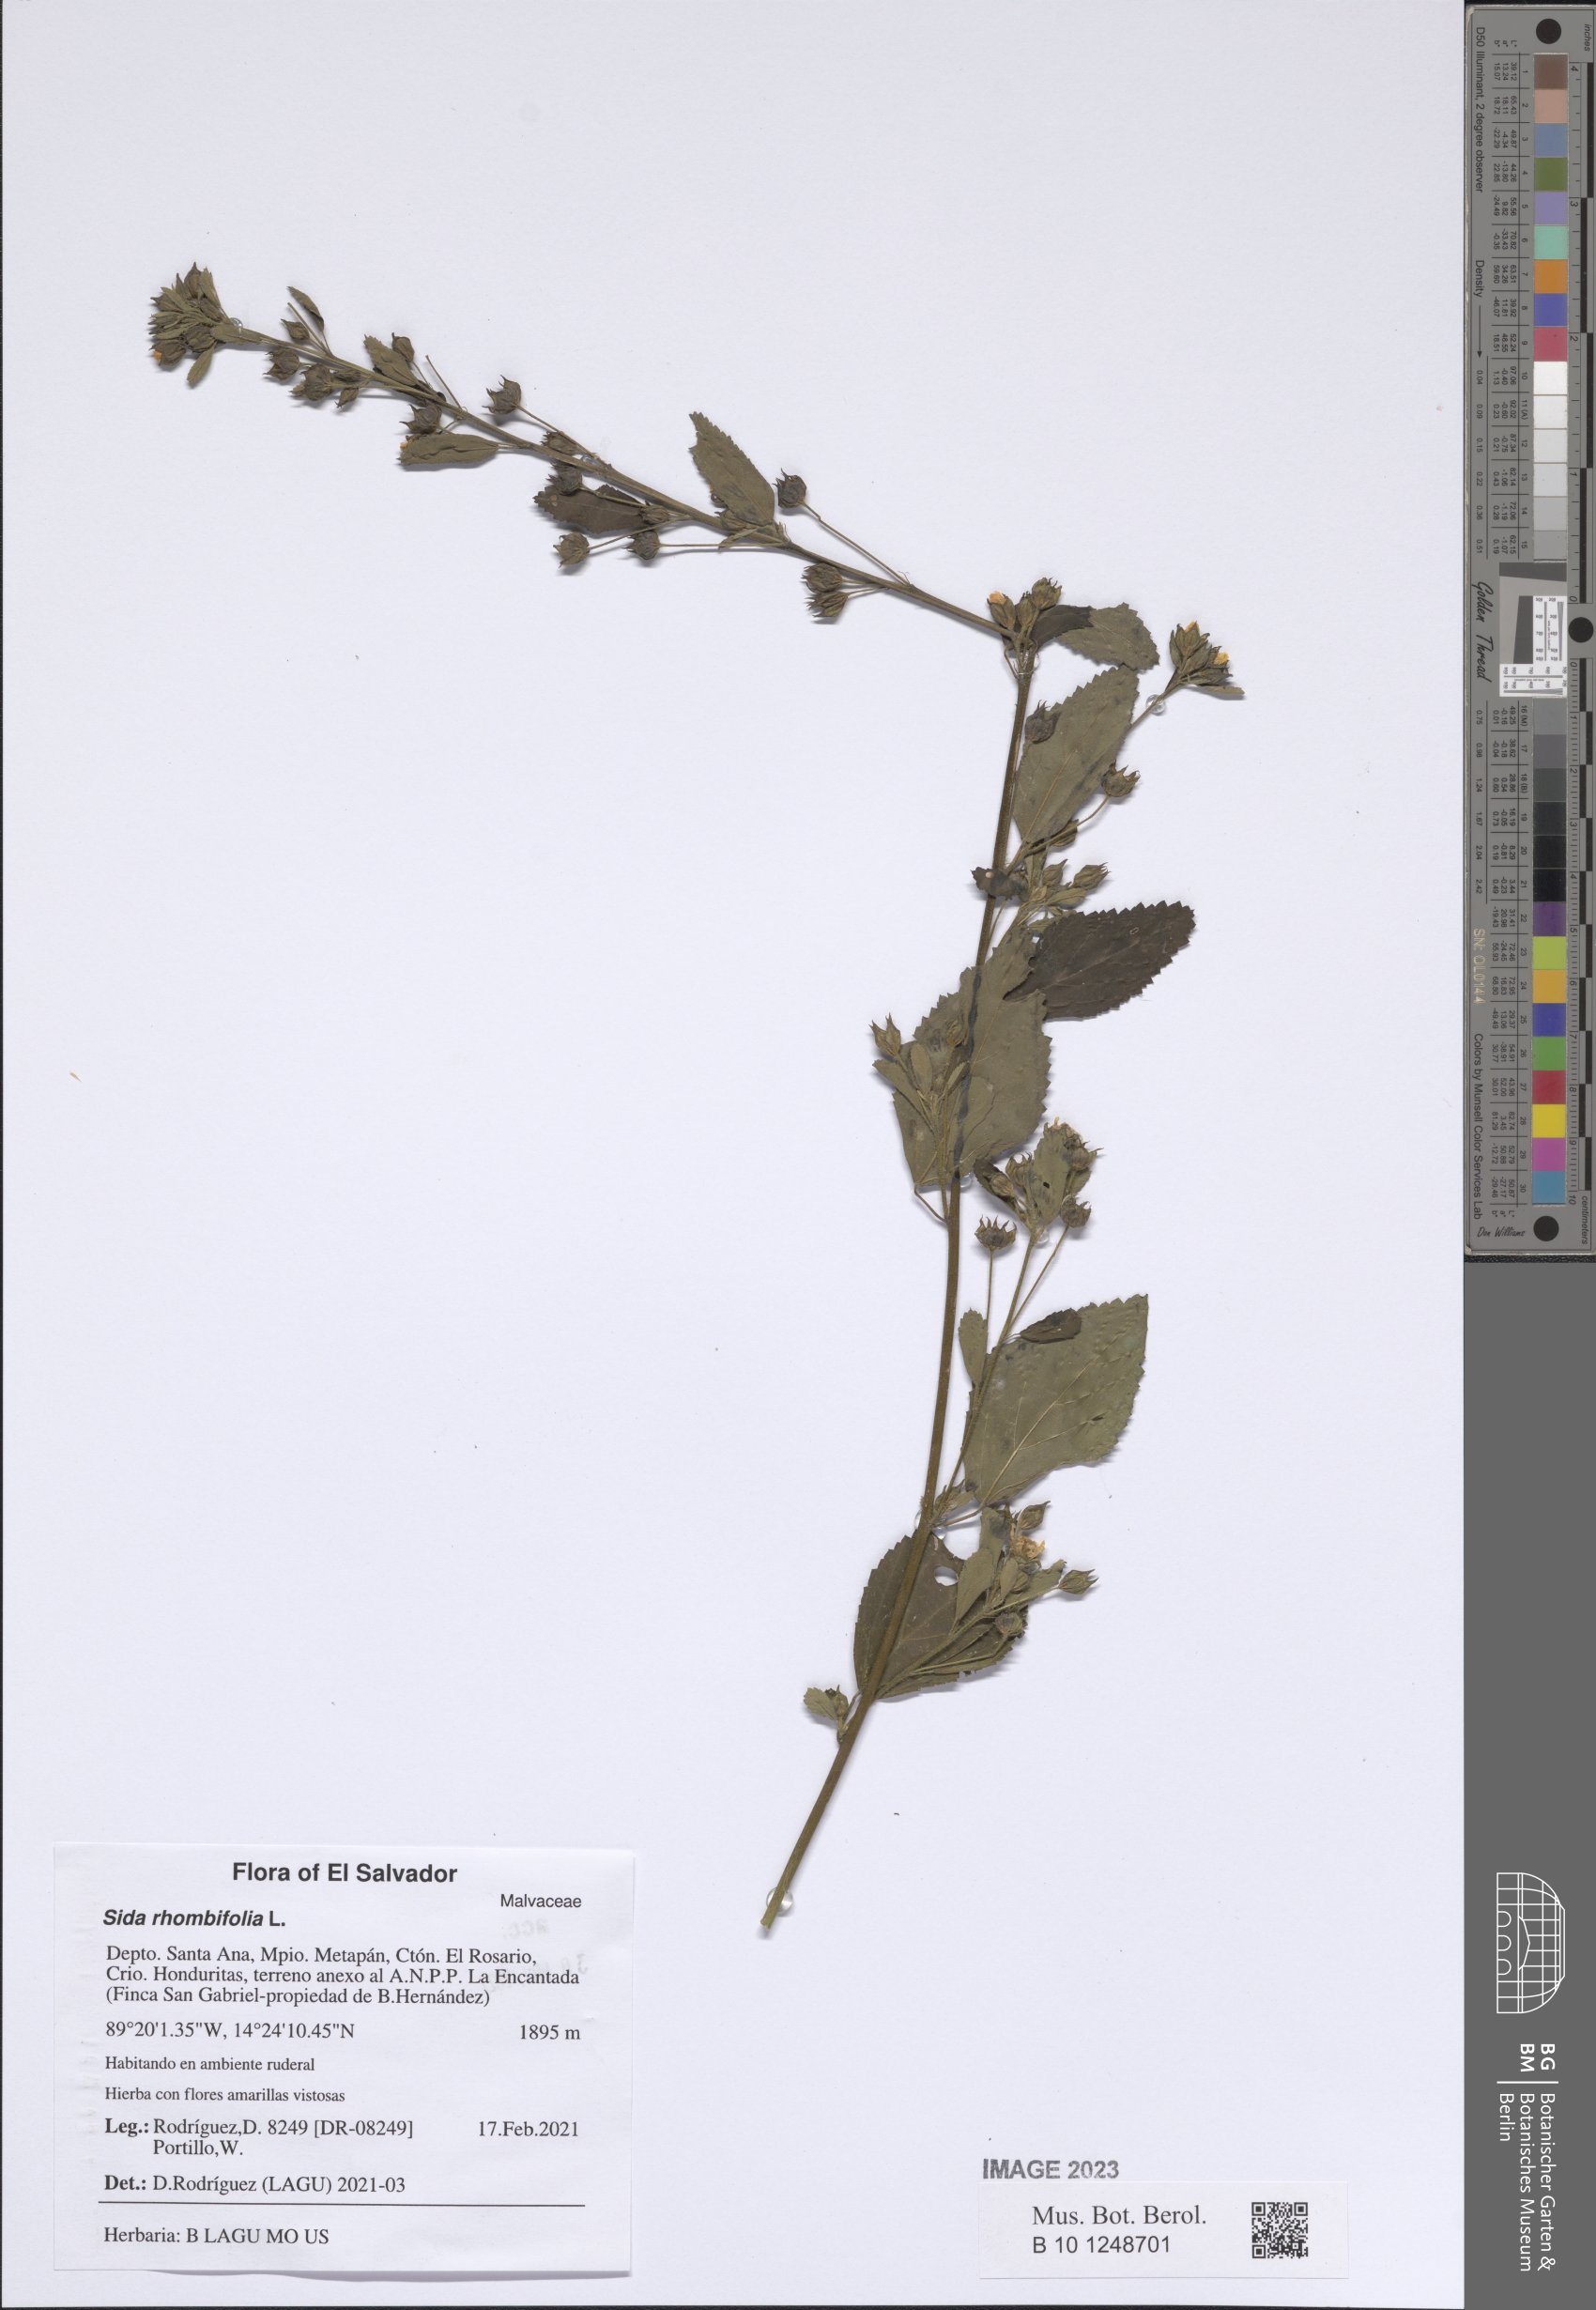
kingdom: Plantae
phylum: Tracheophyta
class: Magnoliopsida
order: Malvales
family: Malvaceae
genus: Sida
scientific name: Sida rhombifolia
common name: Queensland-hemp
